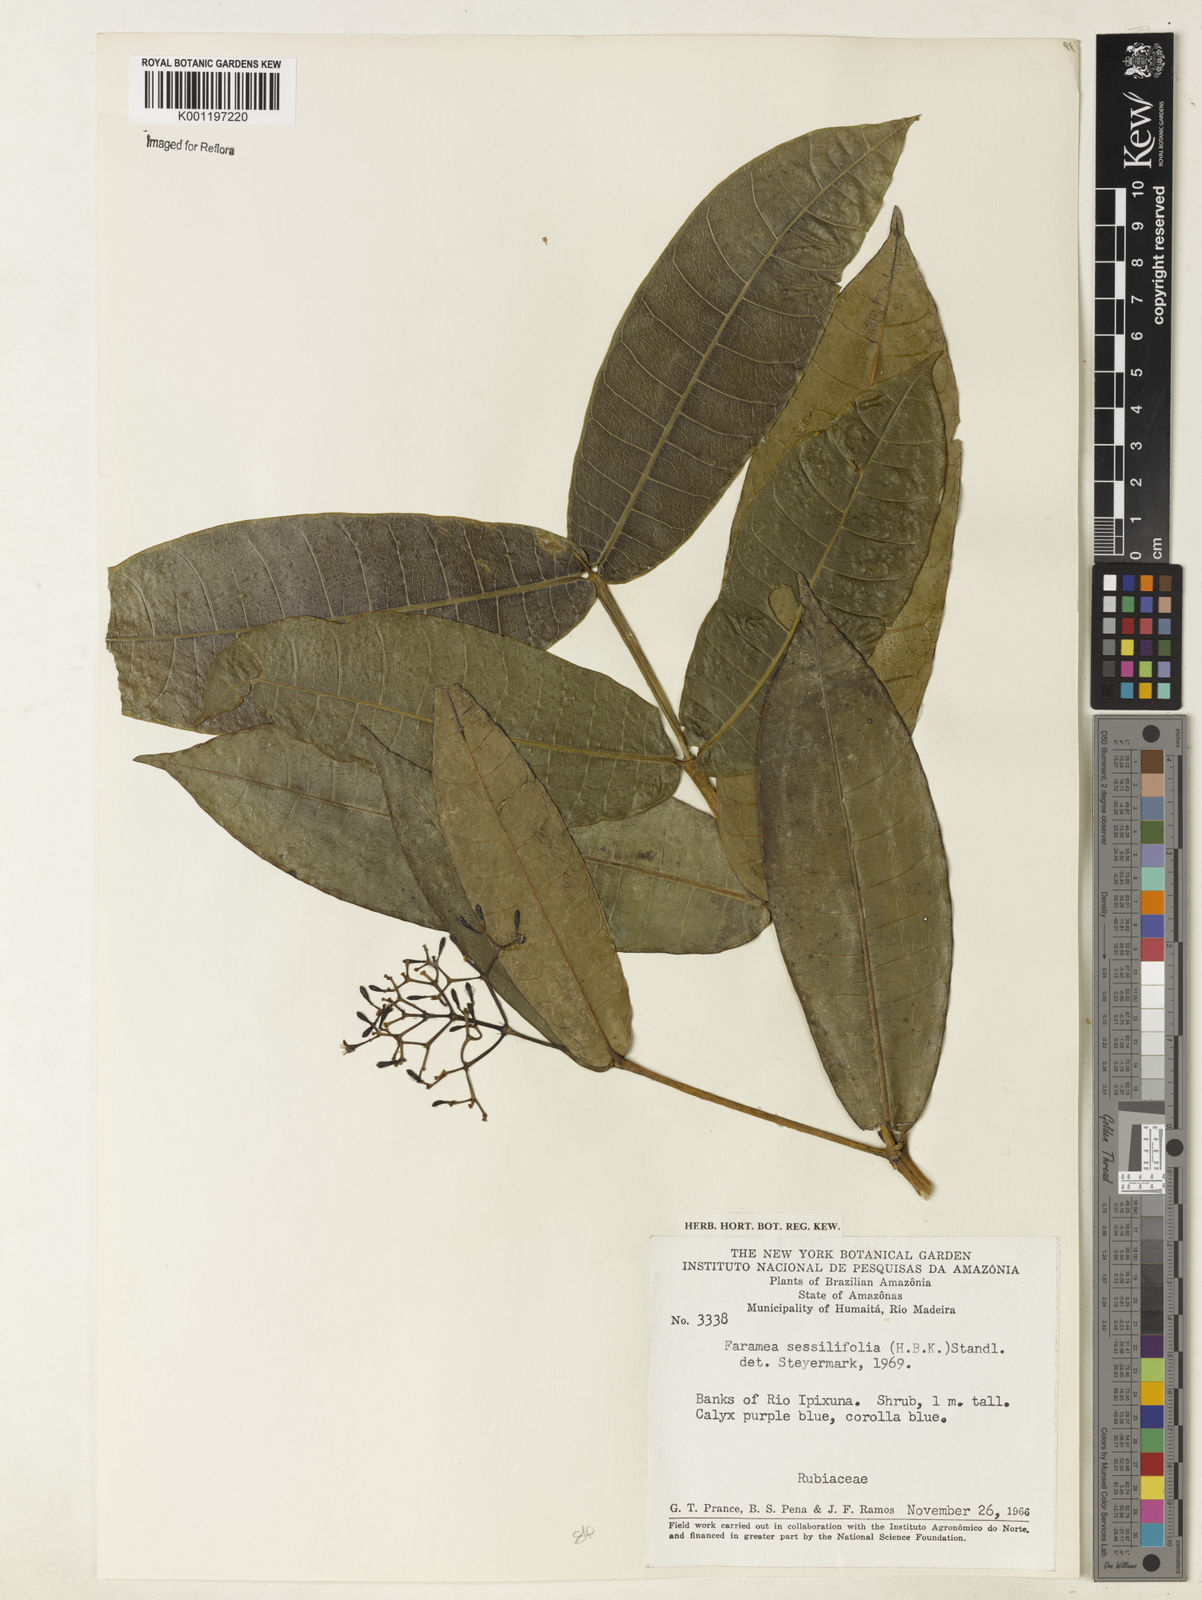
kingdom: Plantae
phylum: Tracheophyta
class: Magnoliopsida
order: Gentianales
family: Rubiaceae
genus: Faramea
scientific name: Faramea sessilifolia
